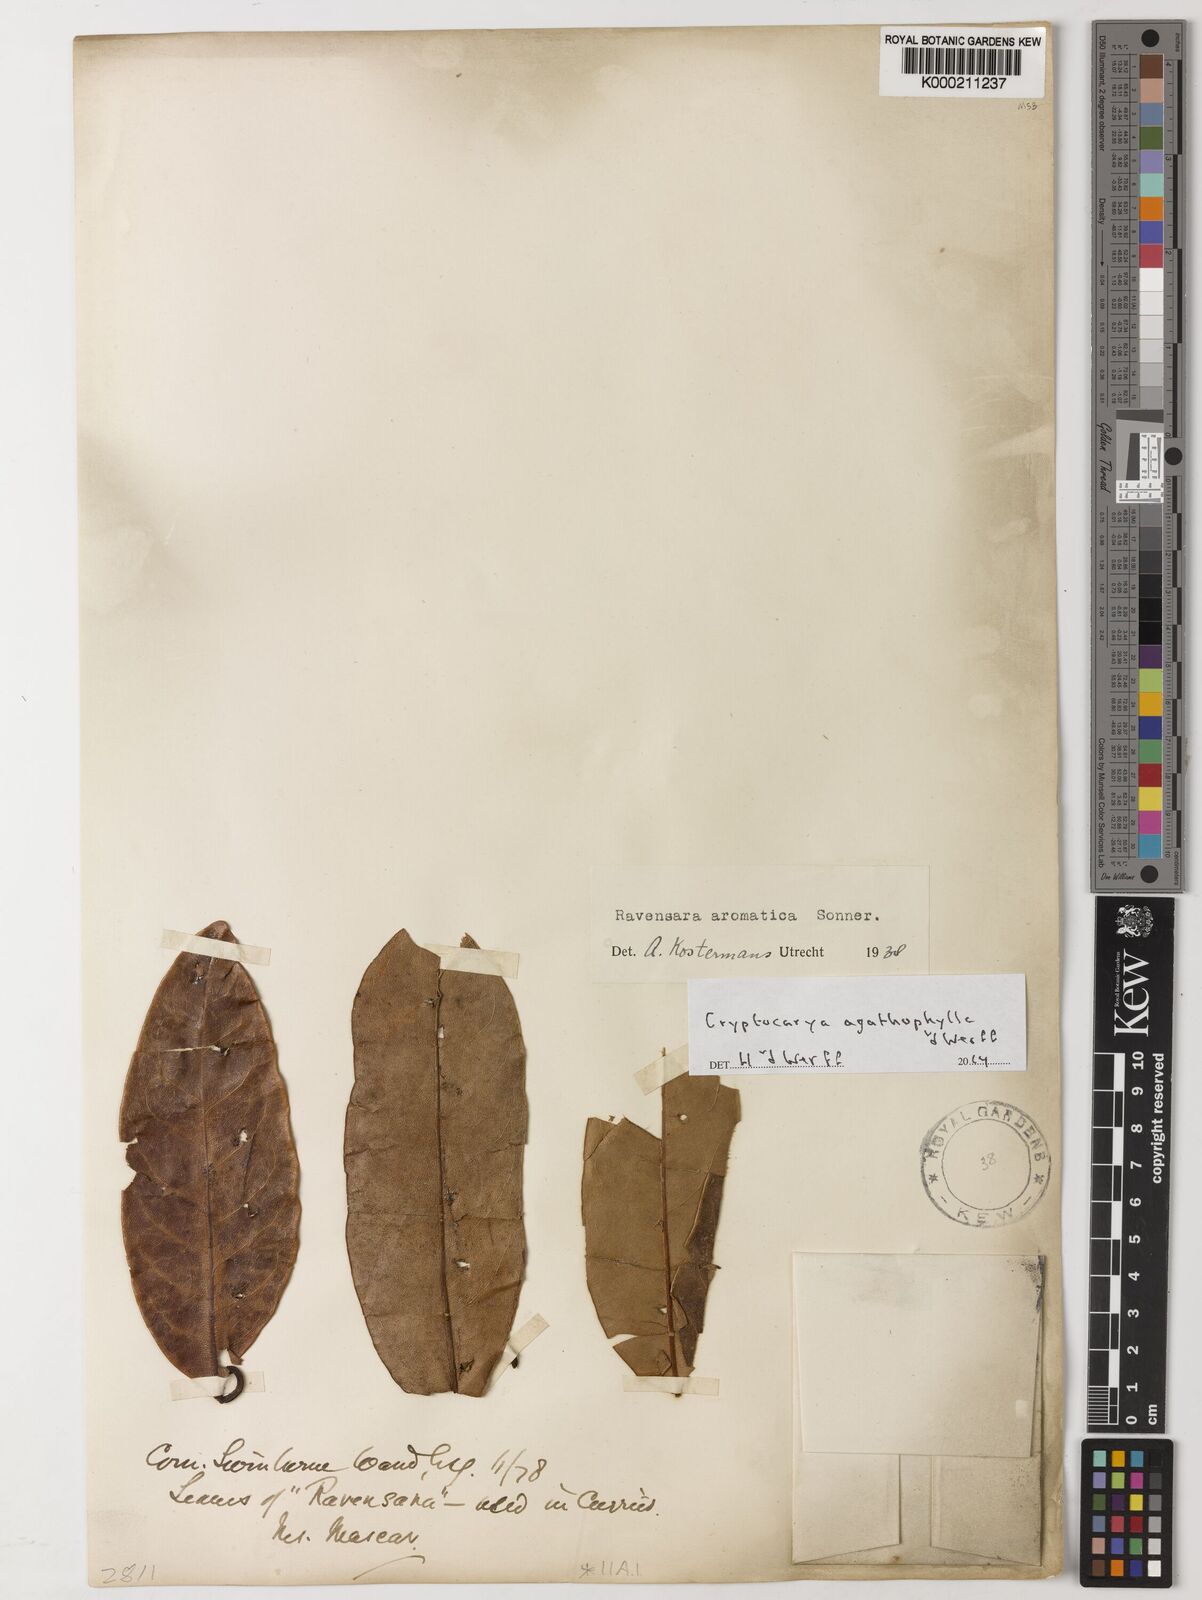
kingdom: Plantae
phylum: Tracheophyta
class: Magnoliopsida
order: Laurales
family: Lauraceae
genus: Cryptocarya
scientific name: Cryptocarya agathophylla
